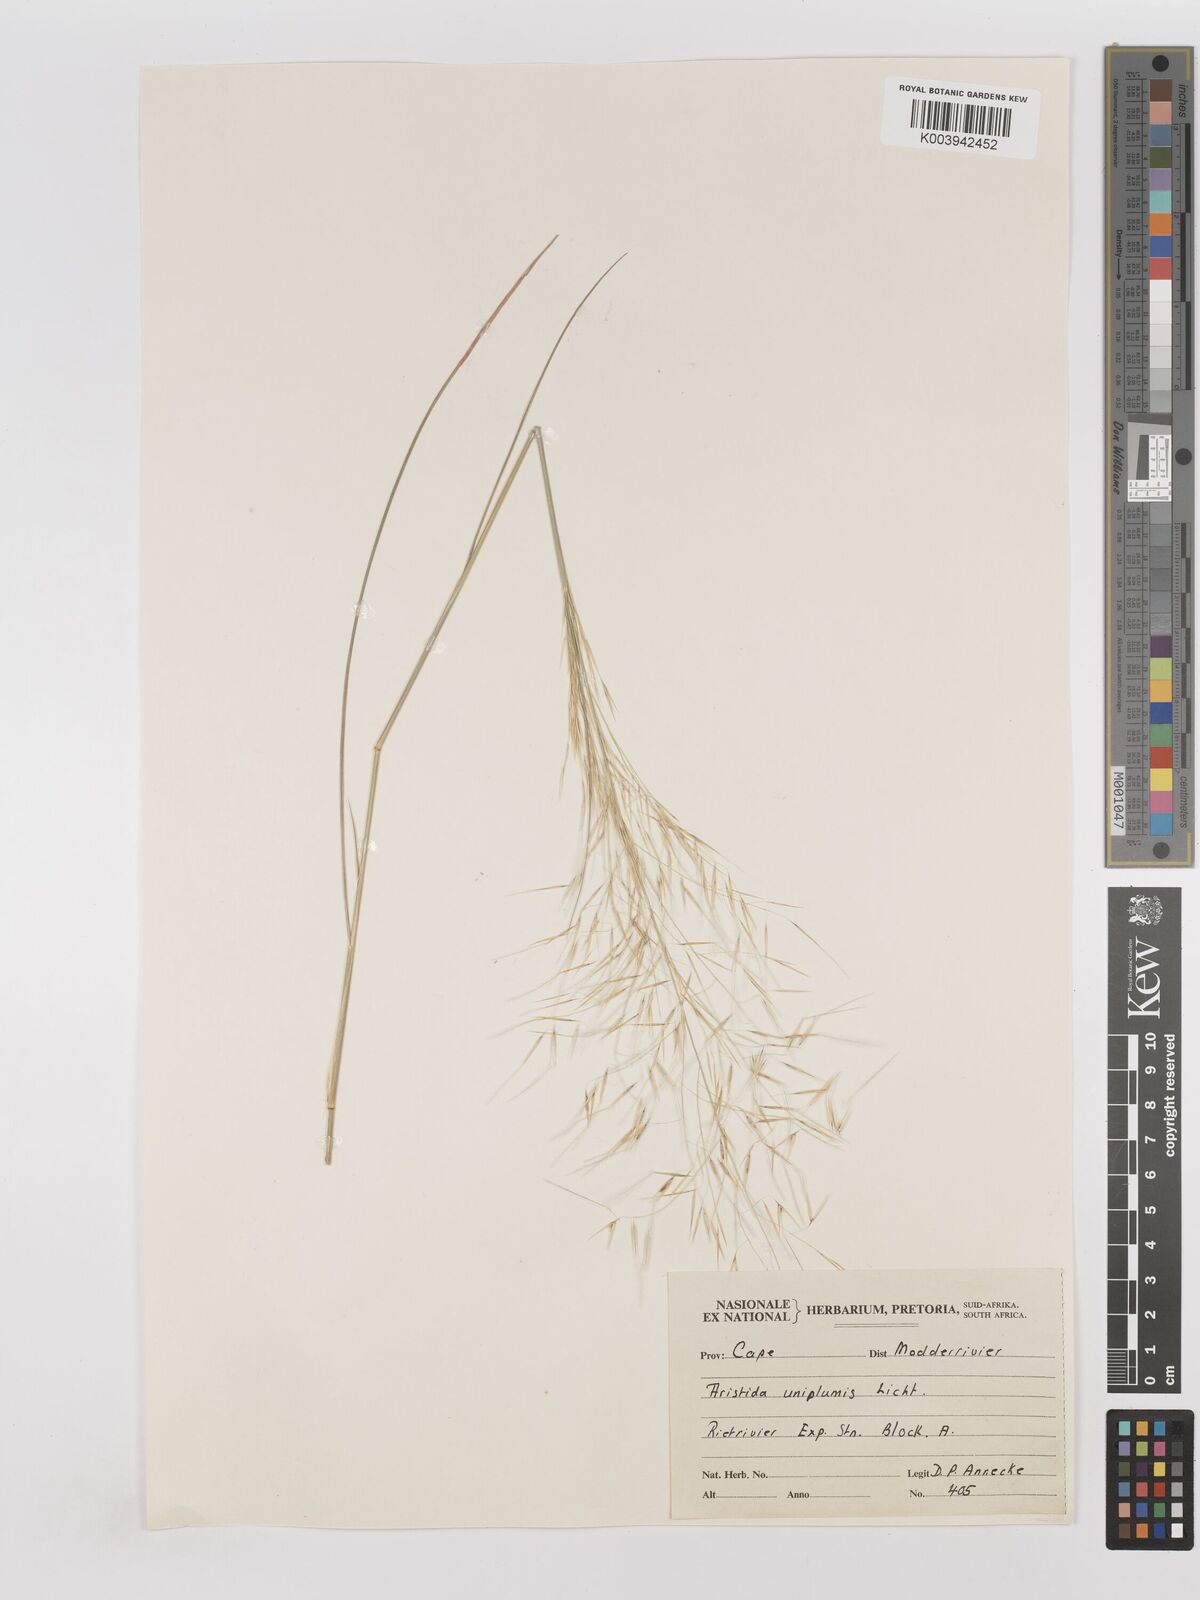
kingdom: Plantae
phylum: Tracheophyta
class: Liliopsida
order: Poales
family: Poaceae
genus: Stipagrostis
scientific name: Stipagrostis uniplumis
